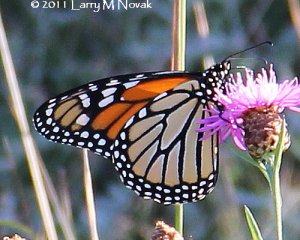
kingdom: Animalia
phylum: Arthropoda
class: Insecta
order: Lepidoptera
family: Nymphalidae
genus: Danaus
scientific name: Danaus plexippus
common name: Monarch
